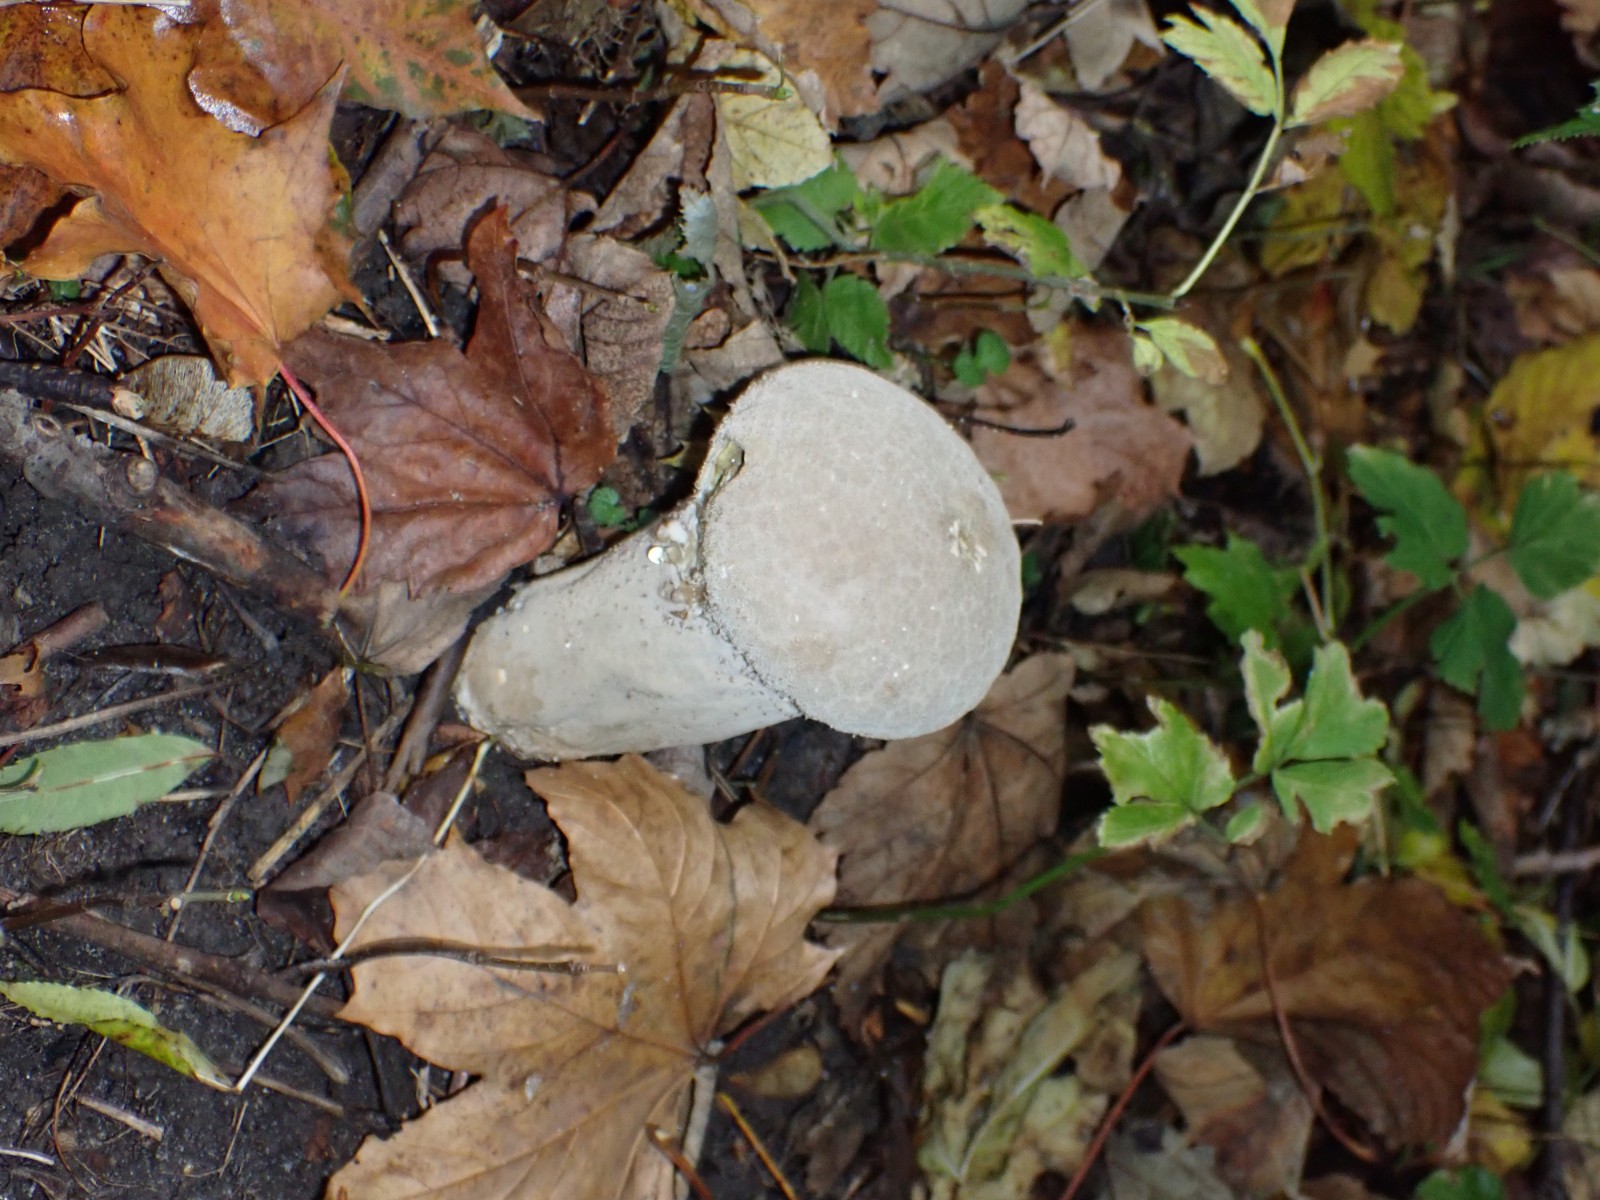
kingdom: Fungi
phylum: Basidiomycota
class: Agaricomycetes
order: Agaricales
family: Lycoperdaceae
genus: Lycoperdon
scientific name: Lycoperdon excipuliforme
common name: højstokket støvbold
